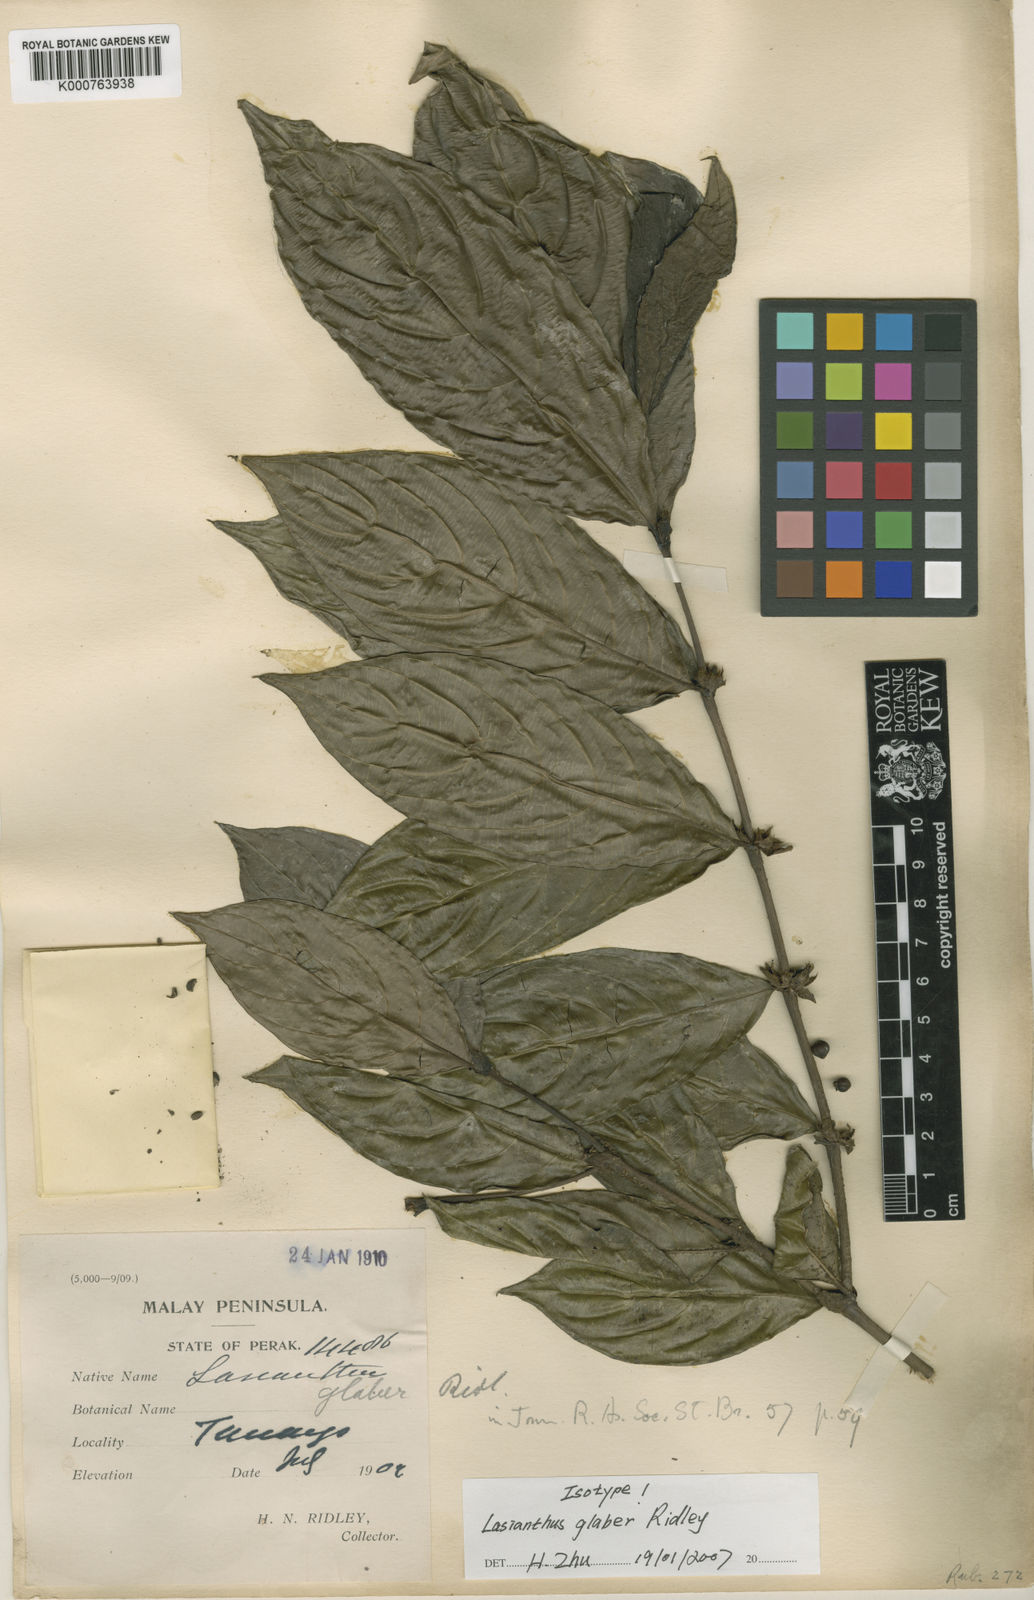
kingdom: Plantae
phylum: Tracheophyta
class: Magnoliopsida
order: Gentianales
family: Rubiaceae
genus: Lasianthus
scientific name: Lasianthus glaber
